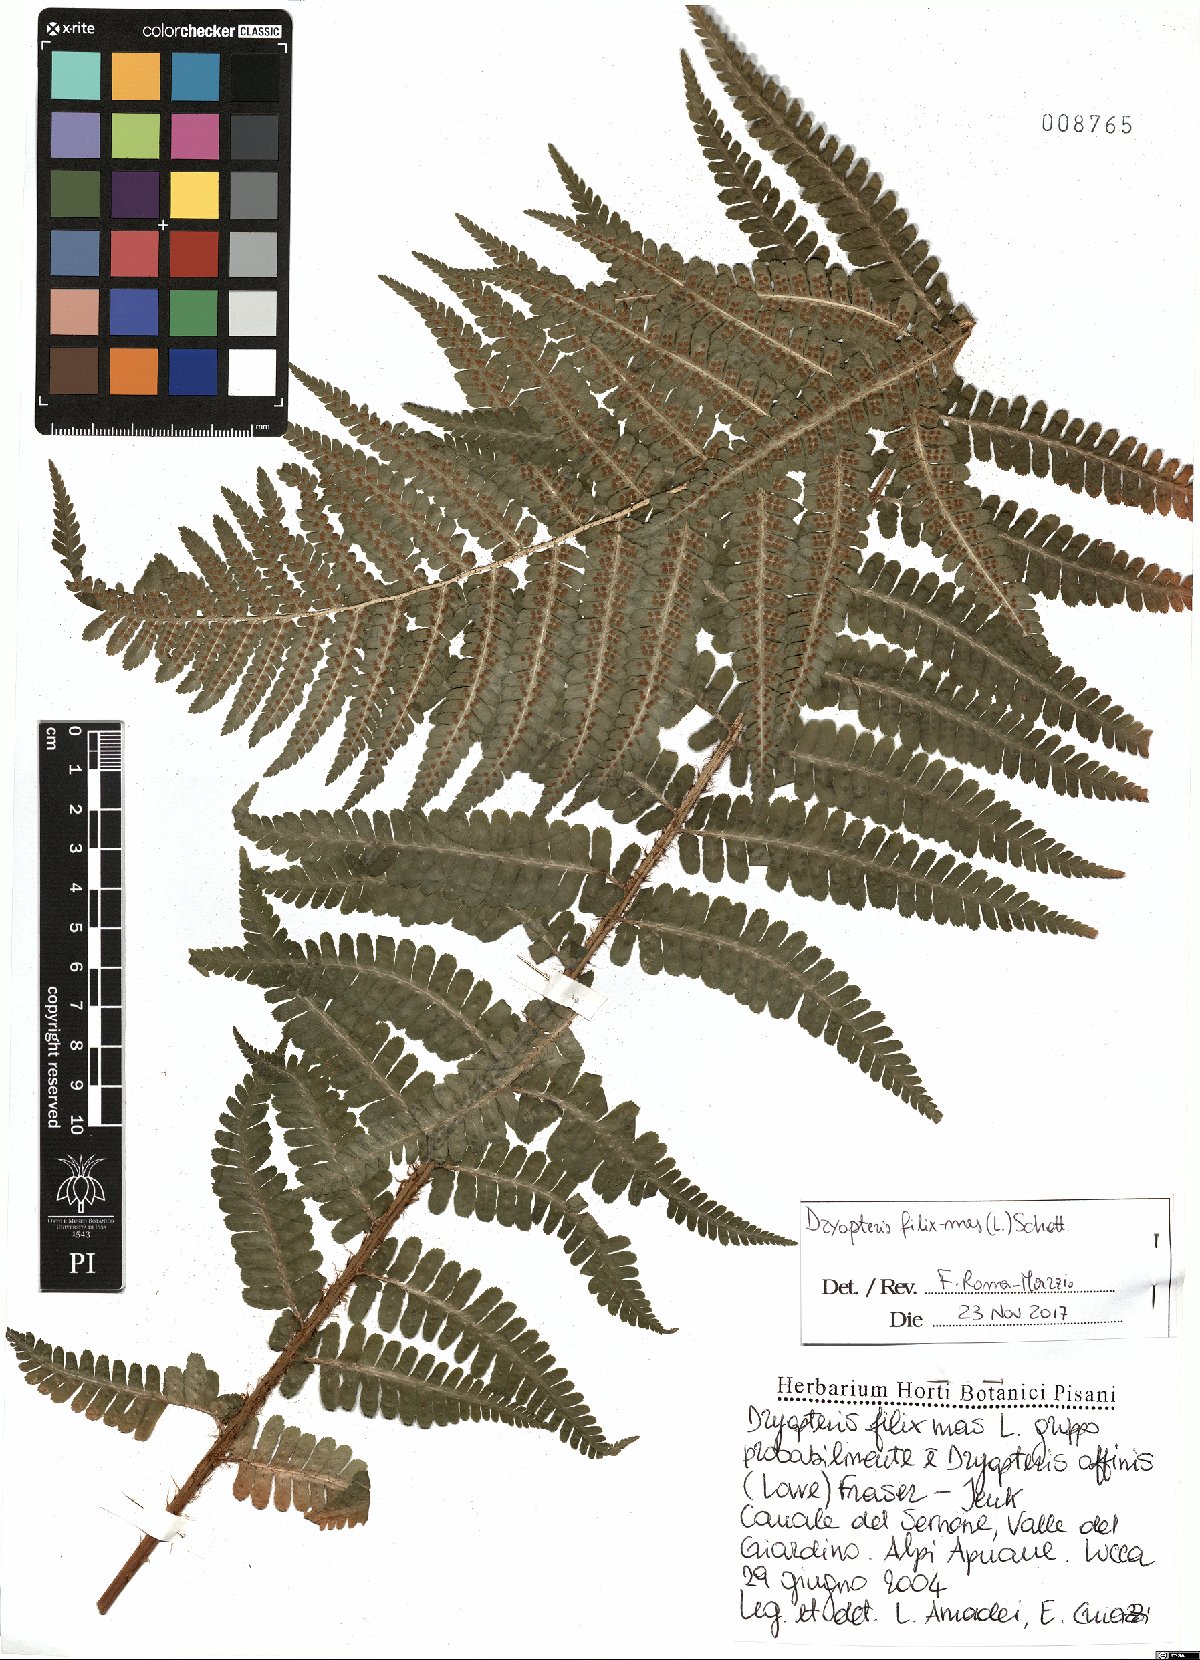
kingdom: Plantae
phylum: Tracheophyta
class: Polypodiopsida
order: Polypodiales
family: Dryopteridaceae
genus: Dryopteris
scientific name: Dryopteris borreri
